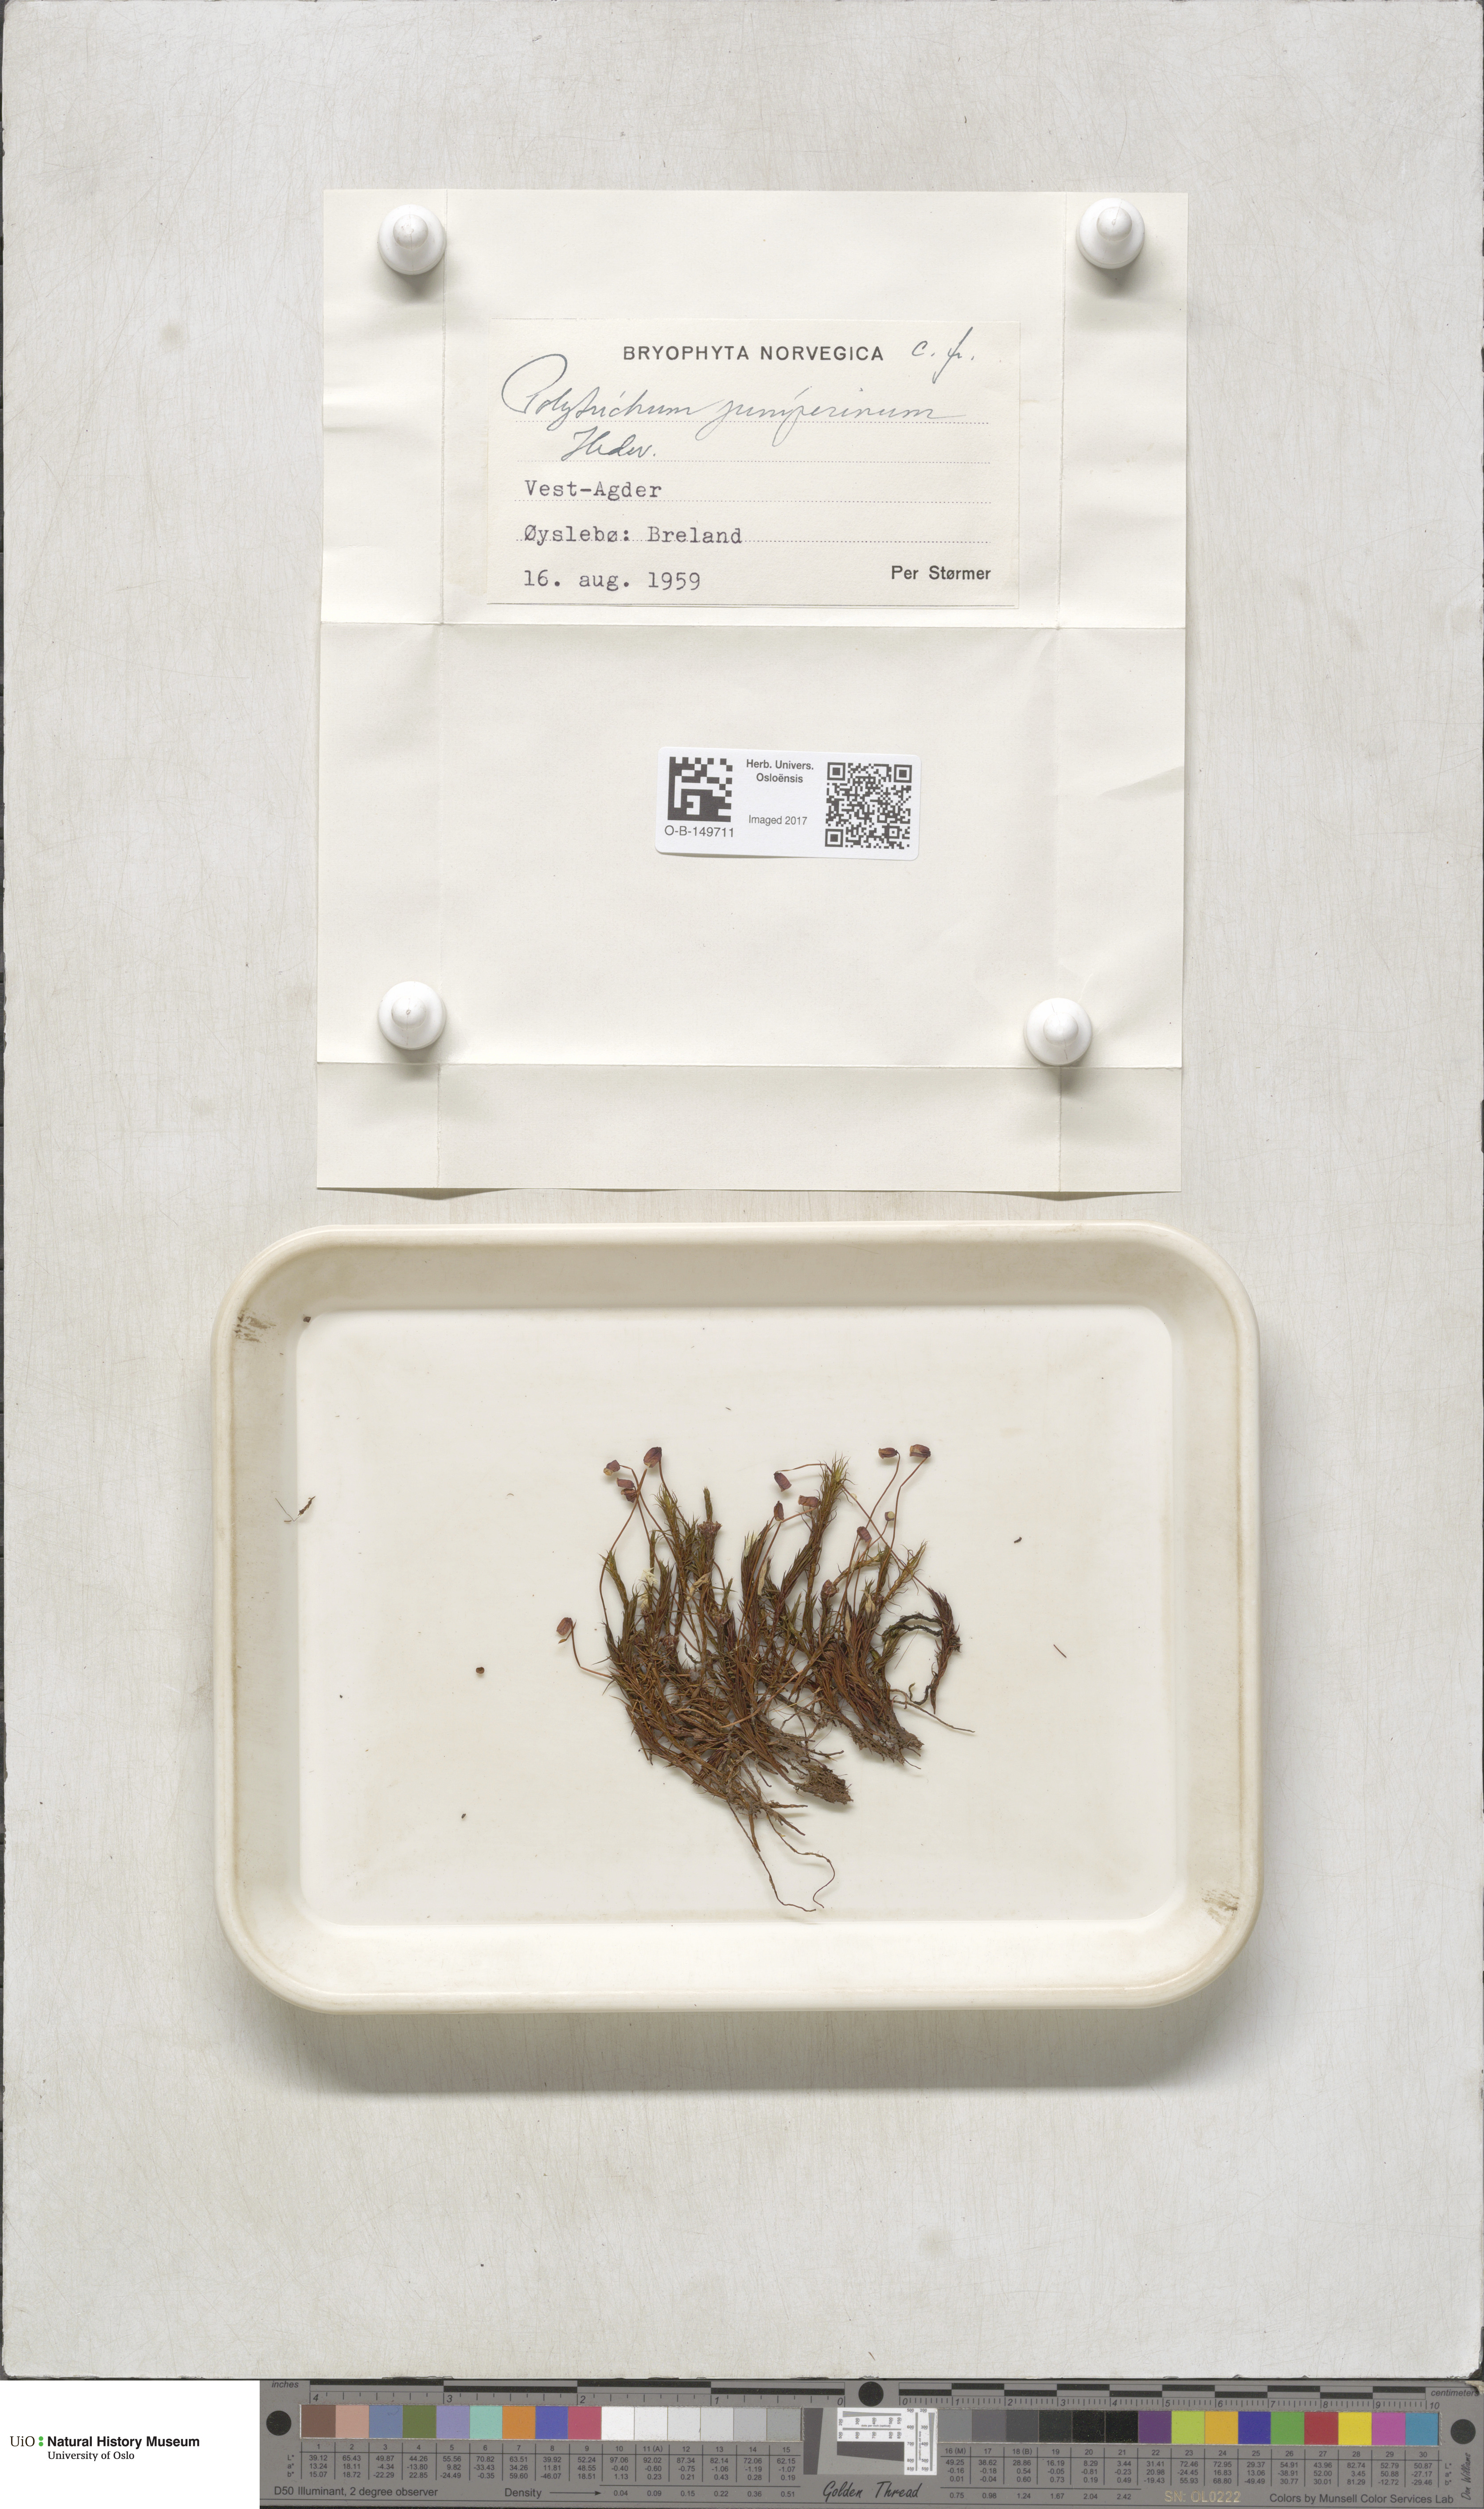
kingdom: Plantae
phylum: Bryophyta
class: Polytrichopsida
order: Polytrichales
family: Polytrichaceae
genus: Polytrichum
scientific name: Polytrichum juniperinum
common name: Juniper haircap moss
